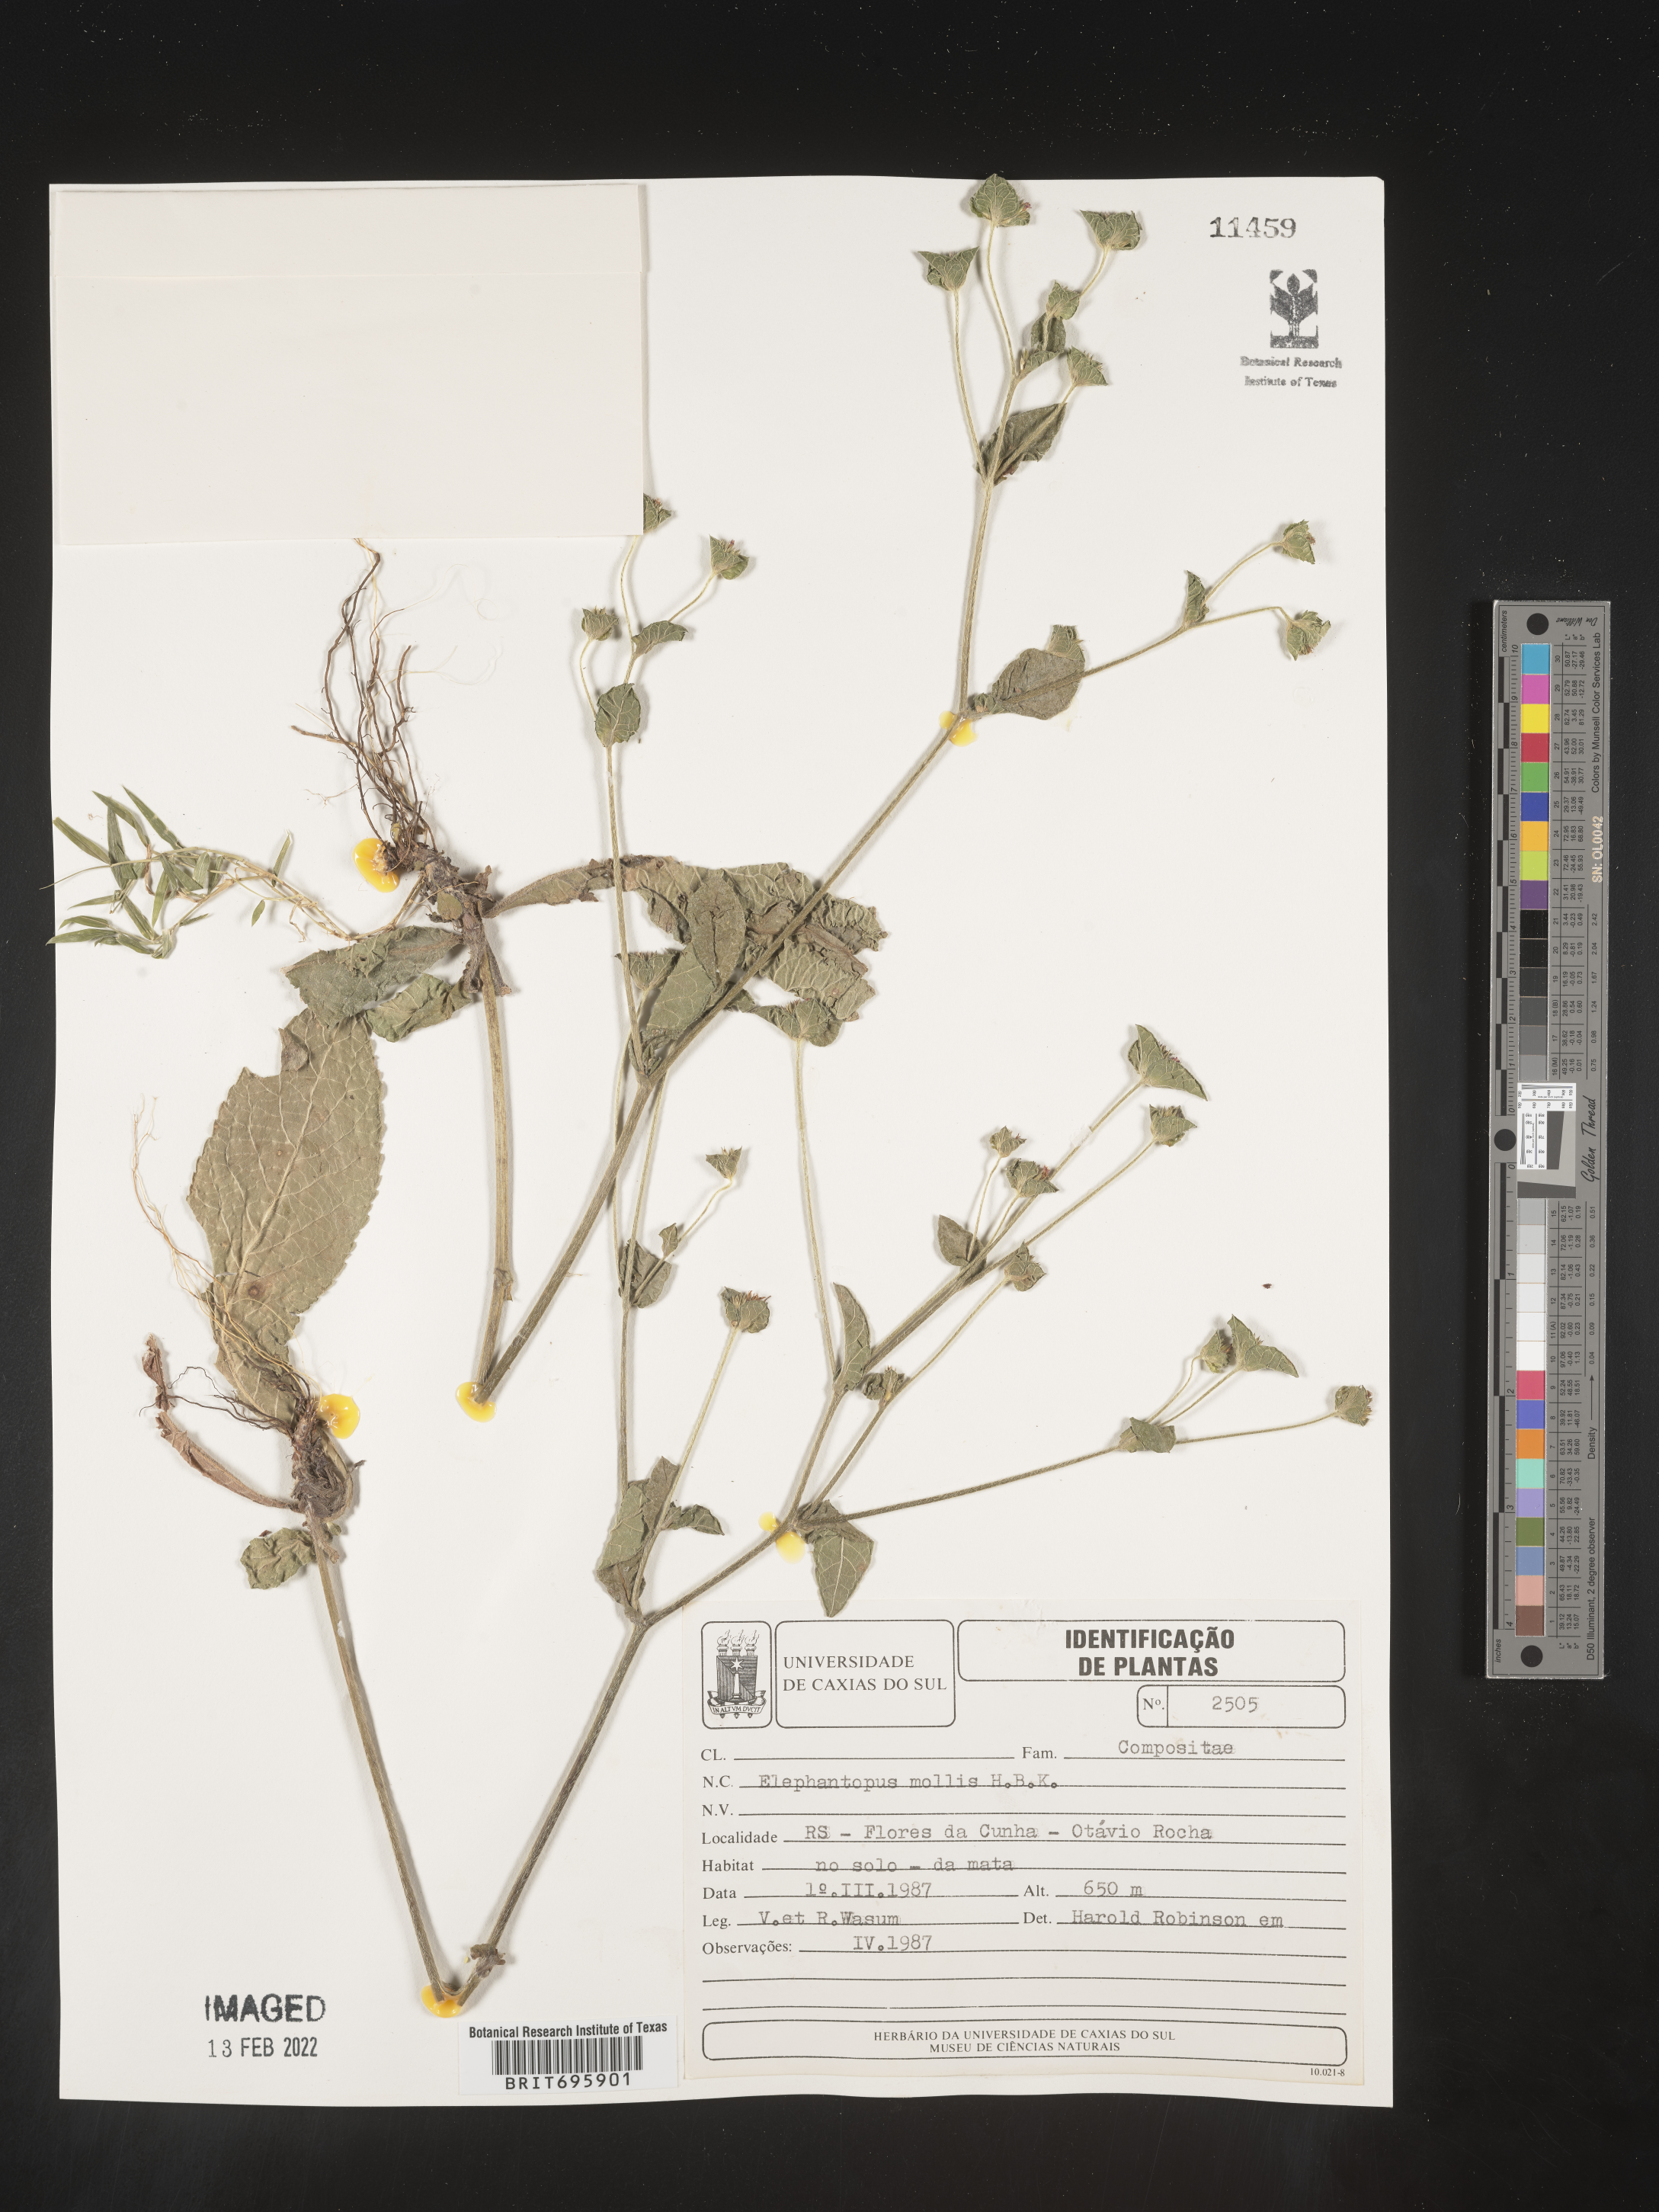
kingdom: Plantae
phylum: Tracheophyta
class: Magnoliopsida
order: Asterales
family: Asteraceae
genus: Elephantopus
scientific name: Elephantopus
